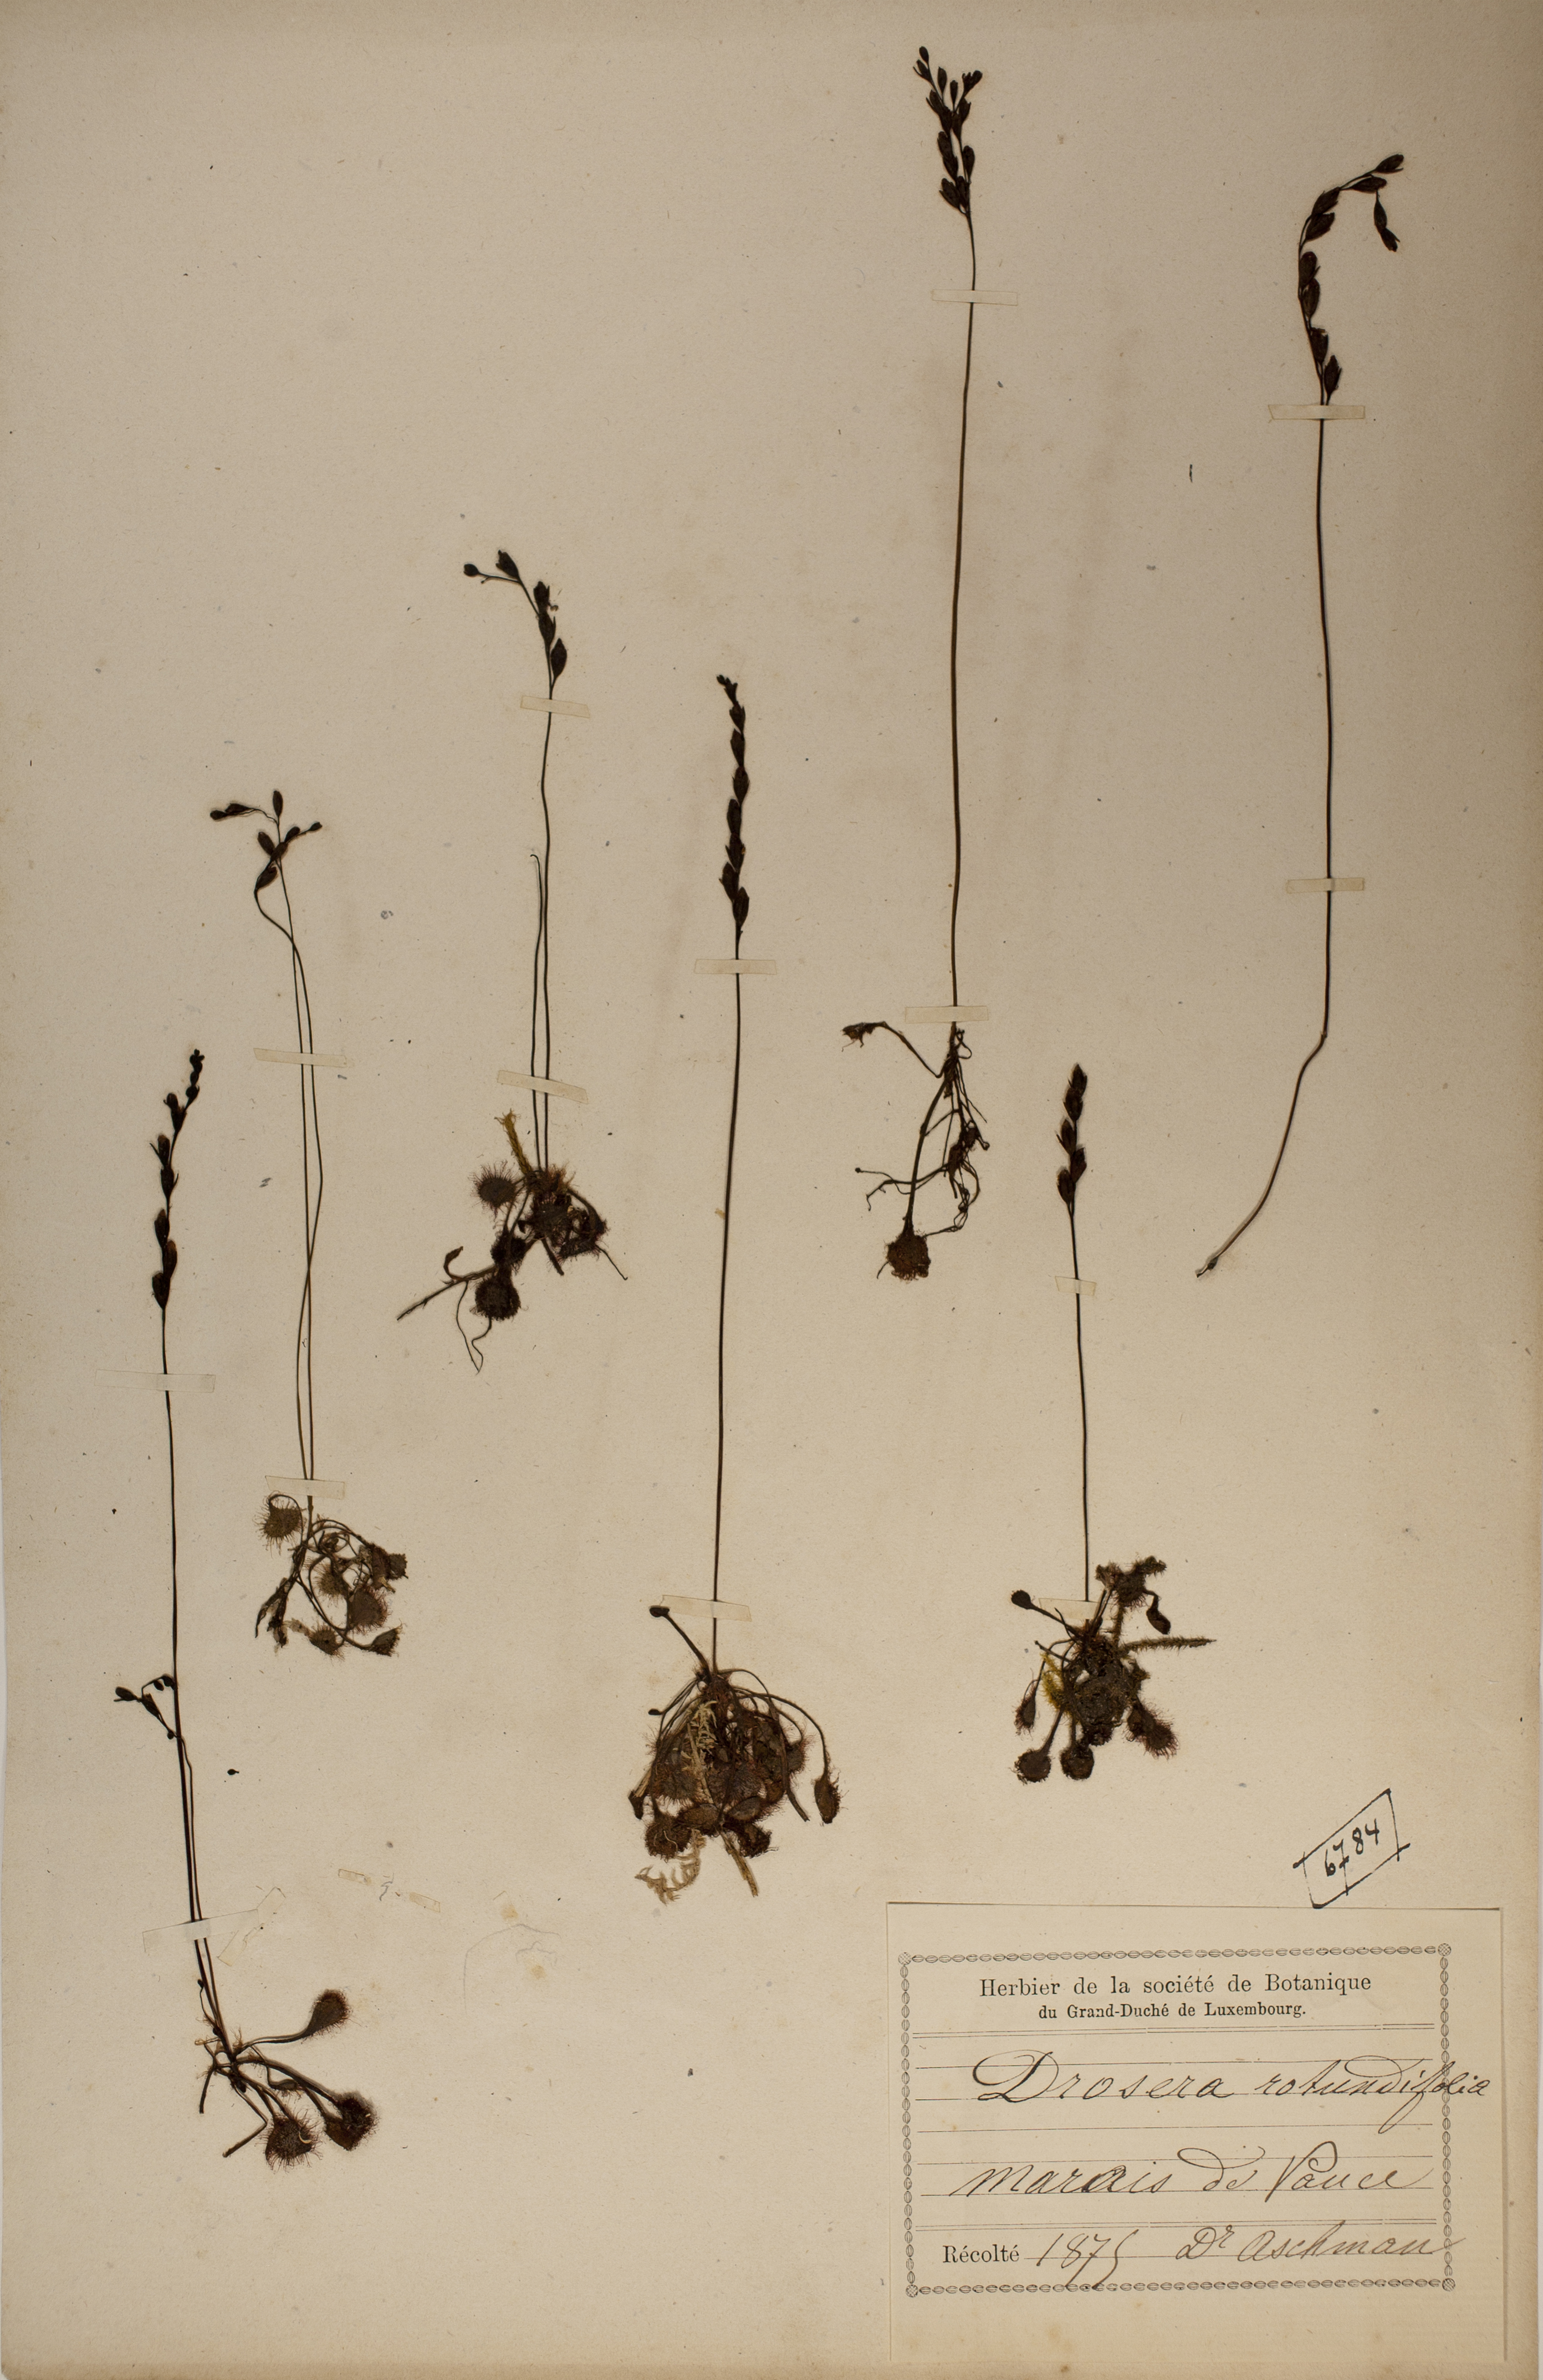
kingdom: Plantae
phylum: Tracheophyta
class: Magnoliopsida
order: Caryophyllales
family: Droseraceae
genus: Drosera
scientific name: Drosera rotundifolia
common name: Round-leaved sundew
